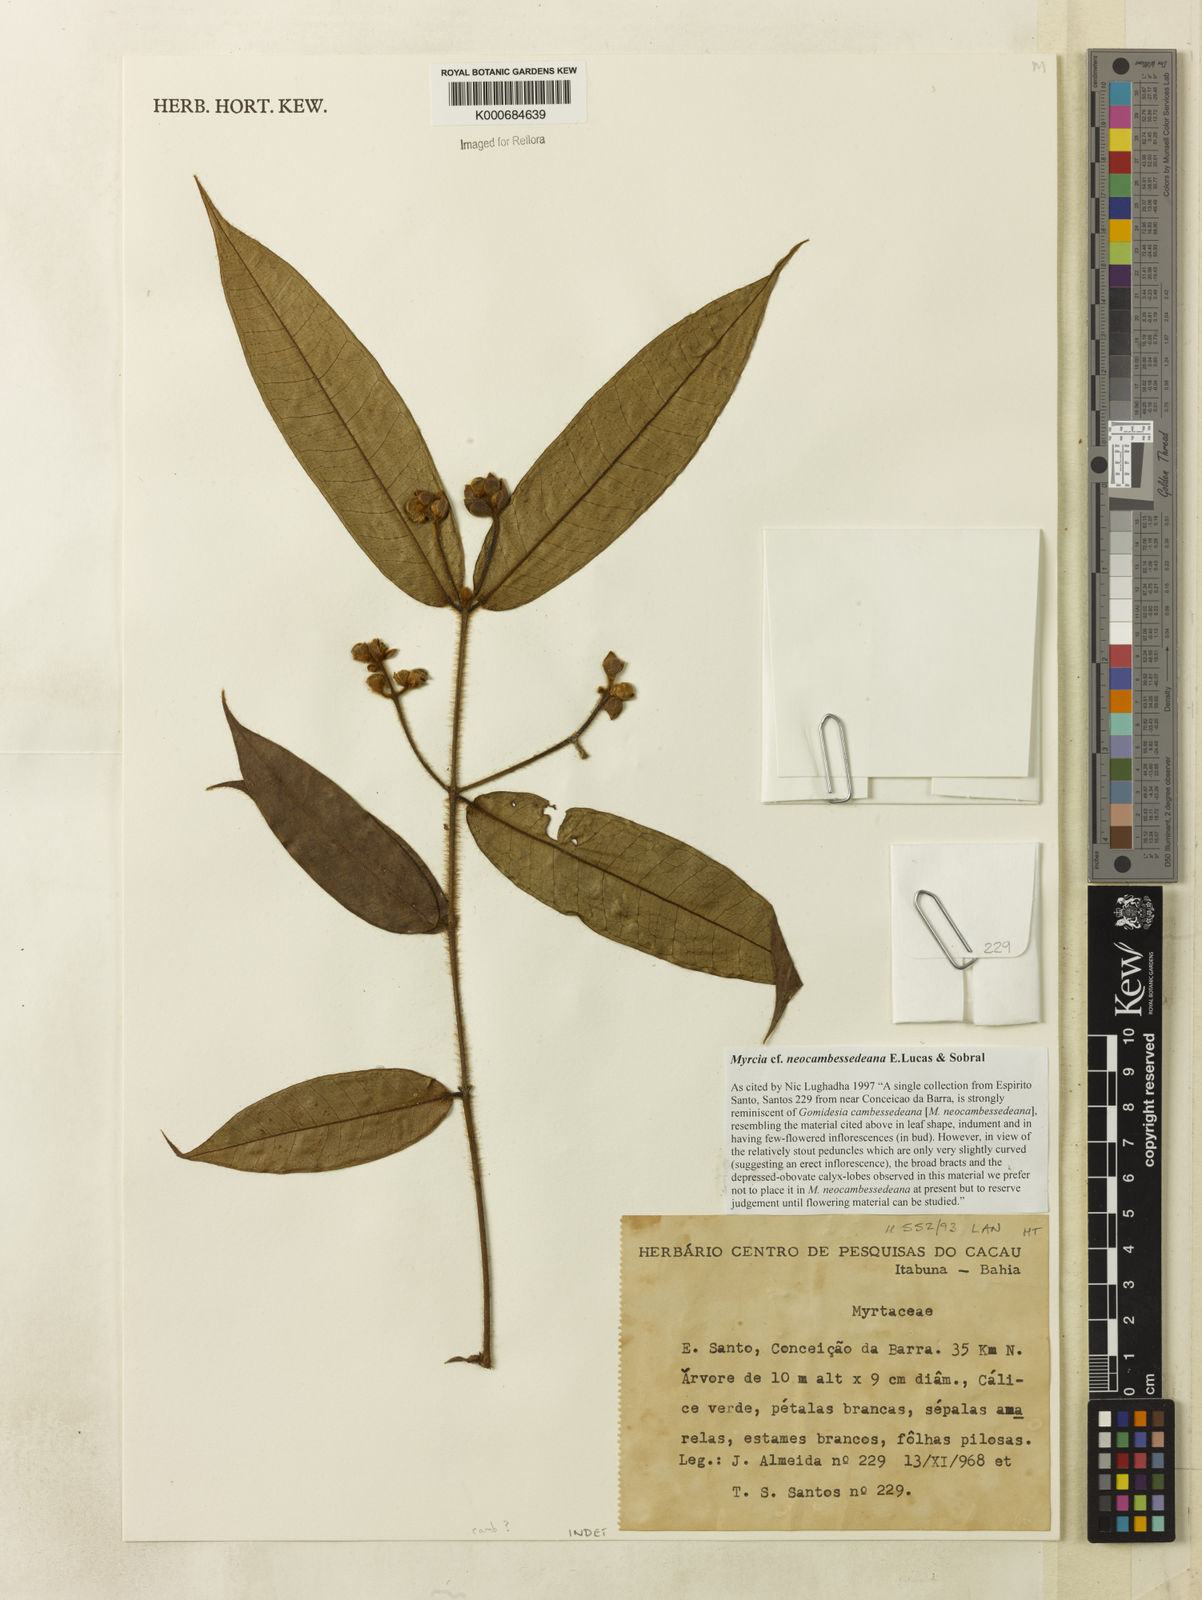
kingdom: Plantae
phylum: Tracheophyta
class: Magnoliopsida
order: Myrtales
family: Myrtaceae
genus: Myrcia
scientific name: Myrcia neocambessedeana
